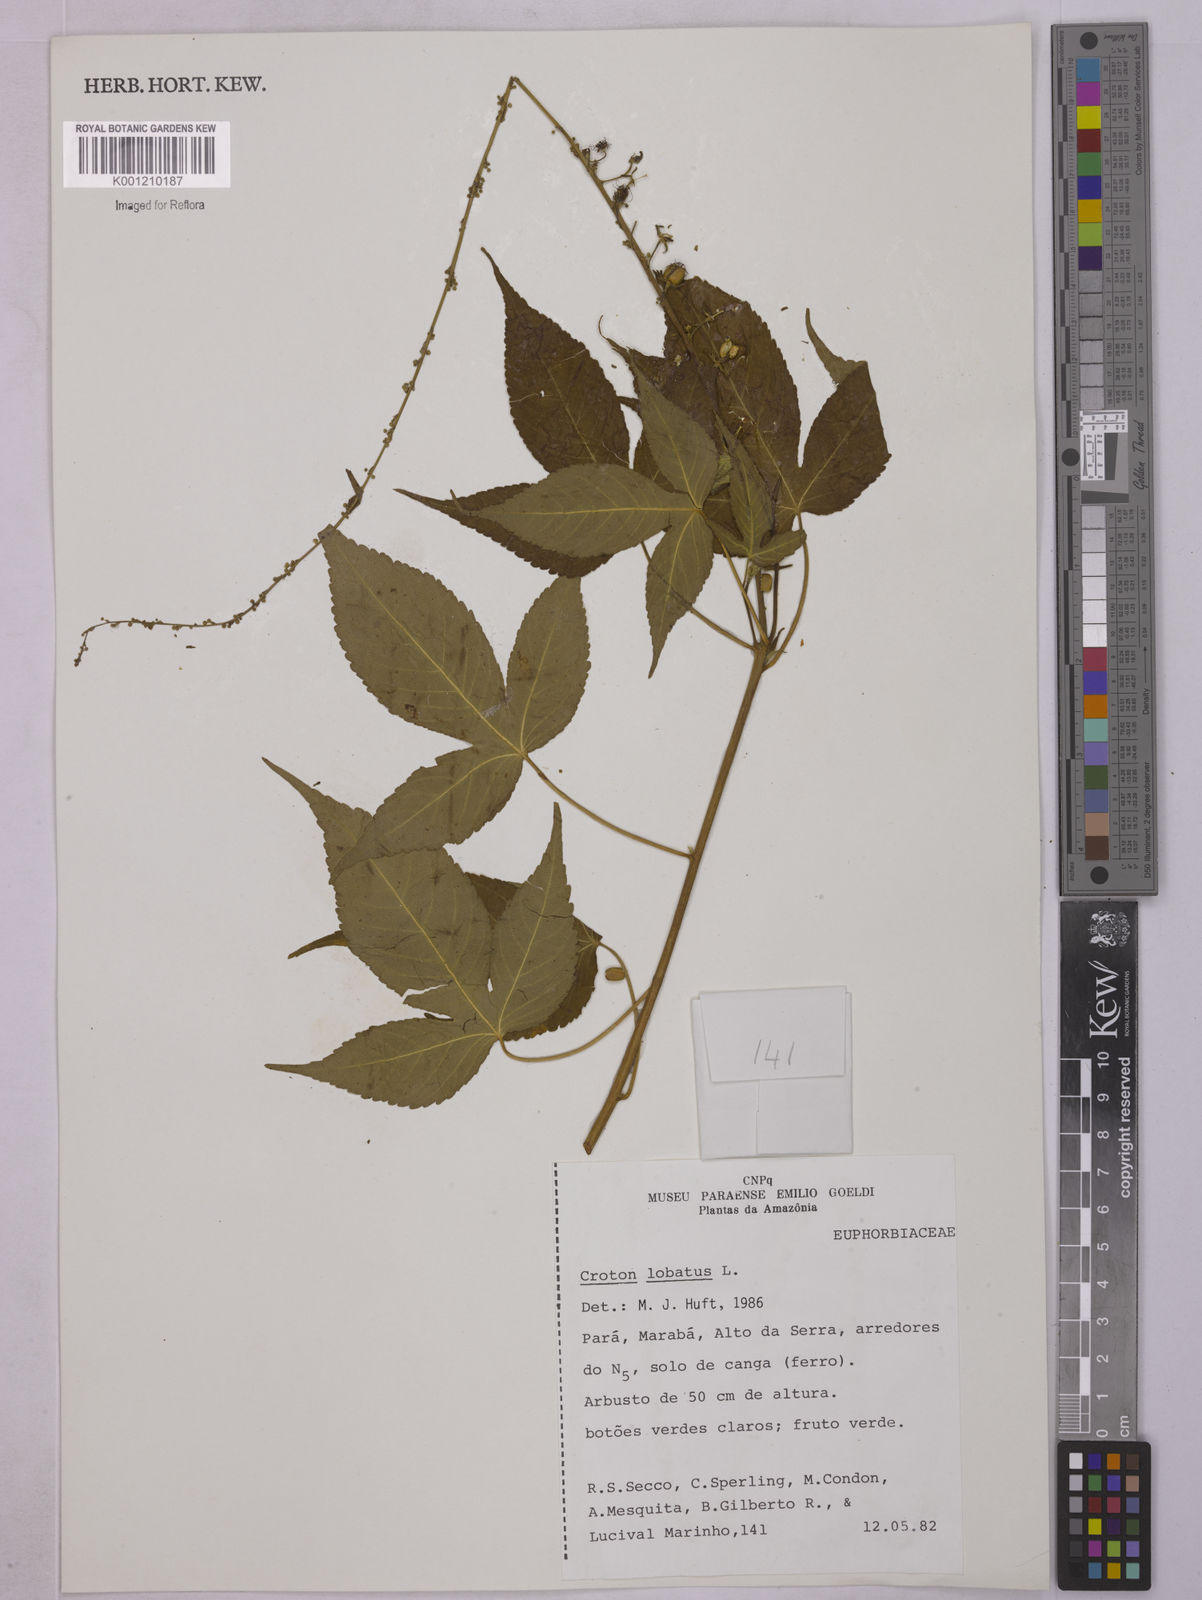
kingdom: Plantae
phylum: Tracheophyta
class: Magnoliopsida
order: Malpighiales
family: Euphorbiaceae
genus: Astraea
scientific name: Astraea lobata
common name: Lobed croton
